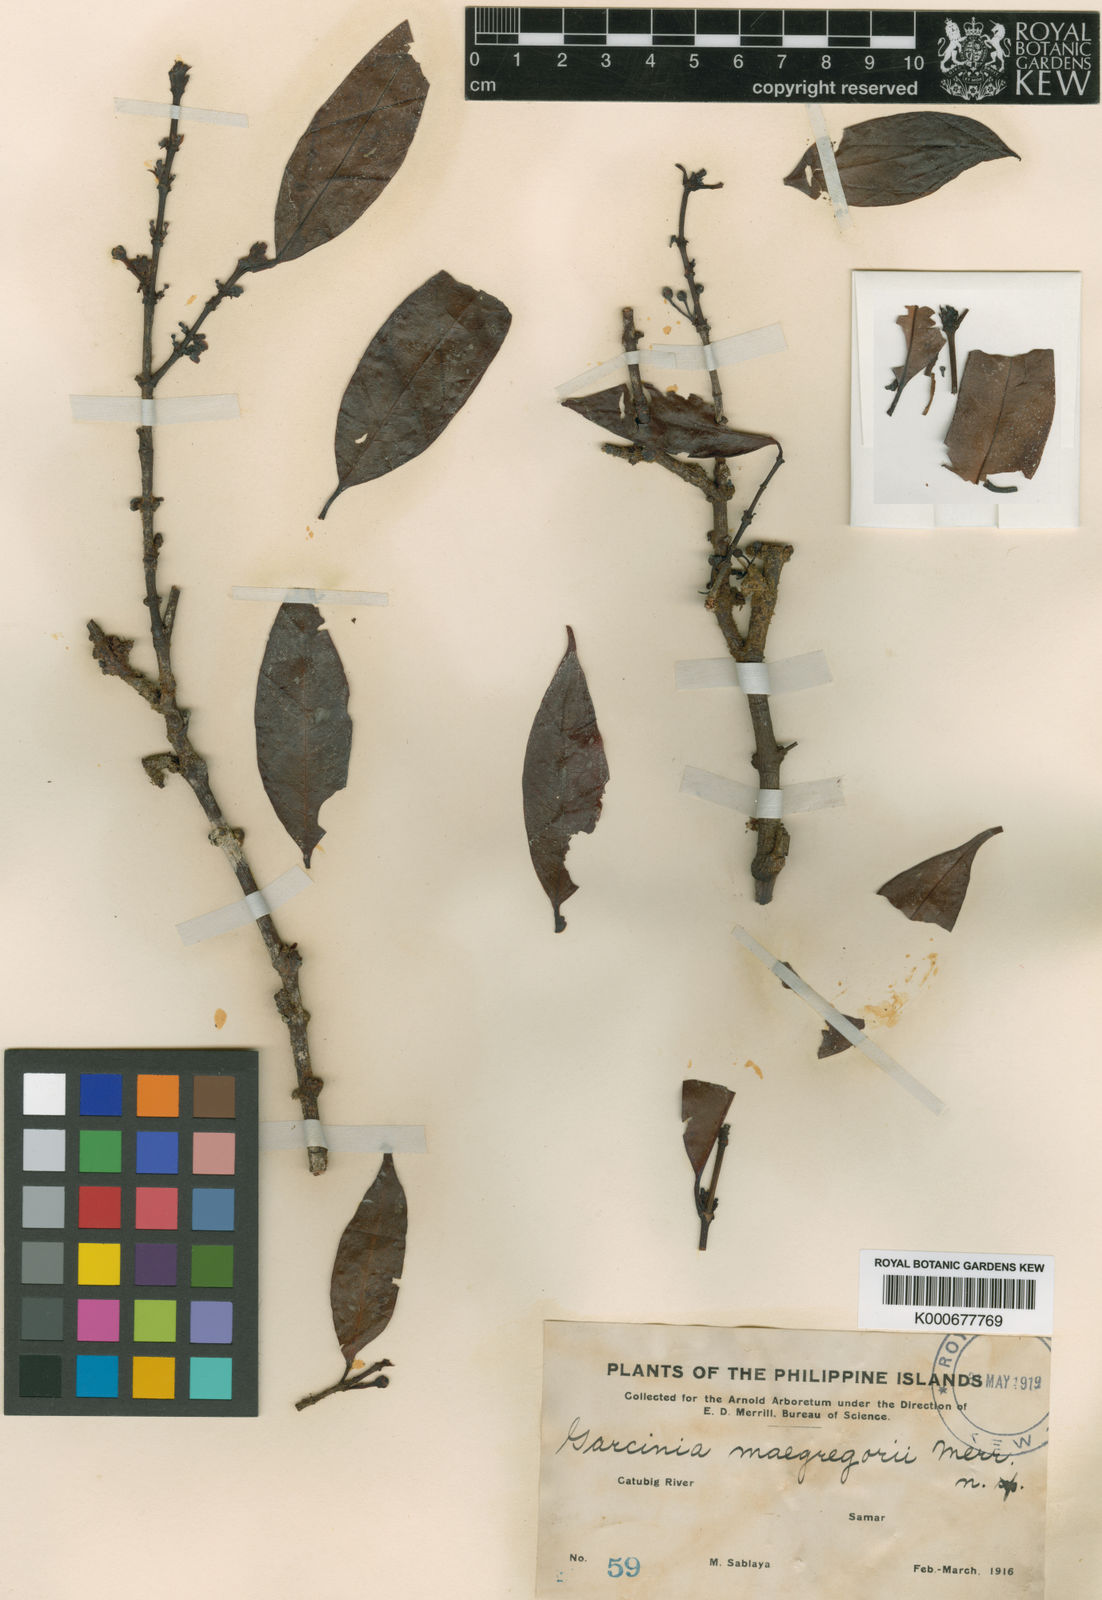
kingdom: Plantae
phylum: Tracheophyta
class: Magnoliopsida
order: Malpighiales
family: Clusiaceae
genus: Garcinia
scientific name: Garcinia macgregorii
